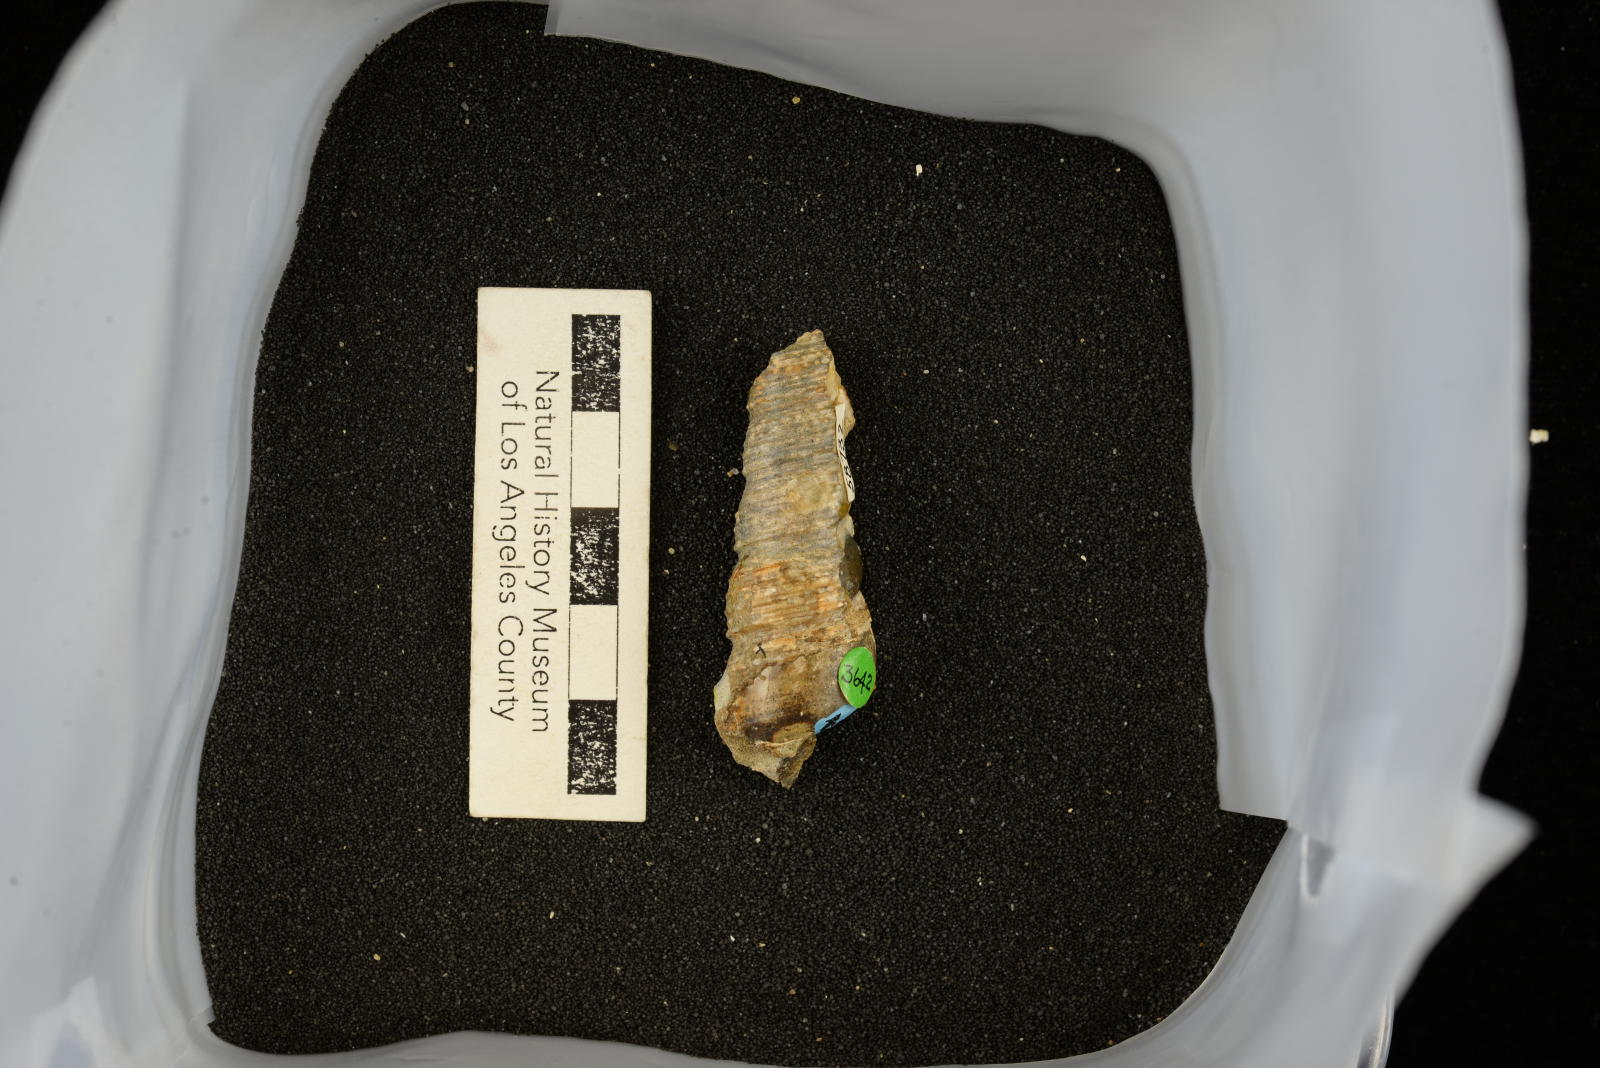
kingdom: Animalia
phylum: Mollusca
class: Gastropoda
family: Turritellidae
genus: Turritella
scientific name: Turritella chicoensis
